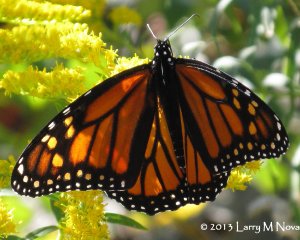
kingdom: Animalia
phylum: Arthropoda
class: Insecta
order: Lepidoptera
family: Nymphalidae
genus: Danaus
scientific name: Danaus plexippus
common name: Monarch
